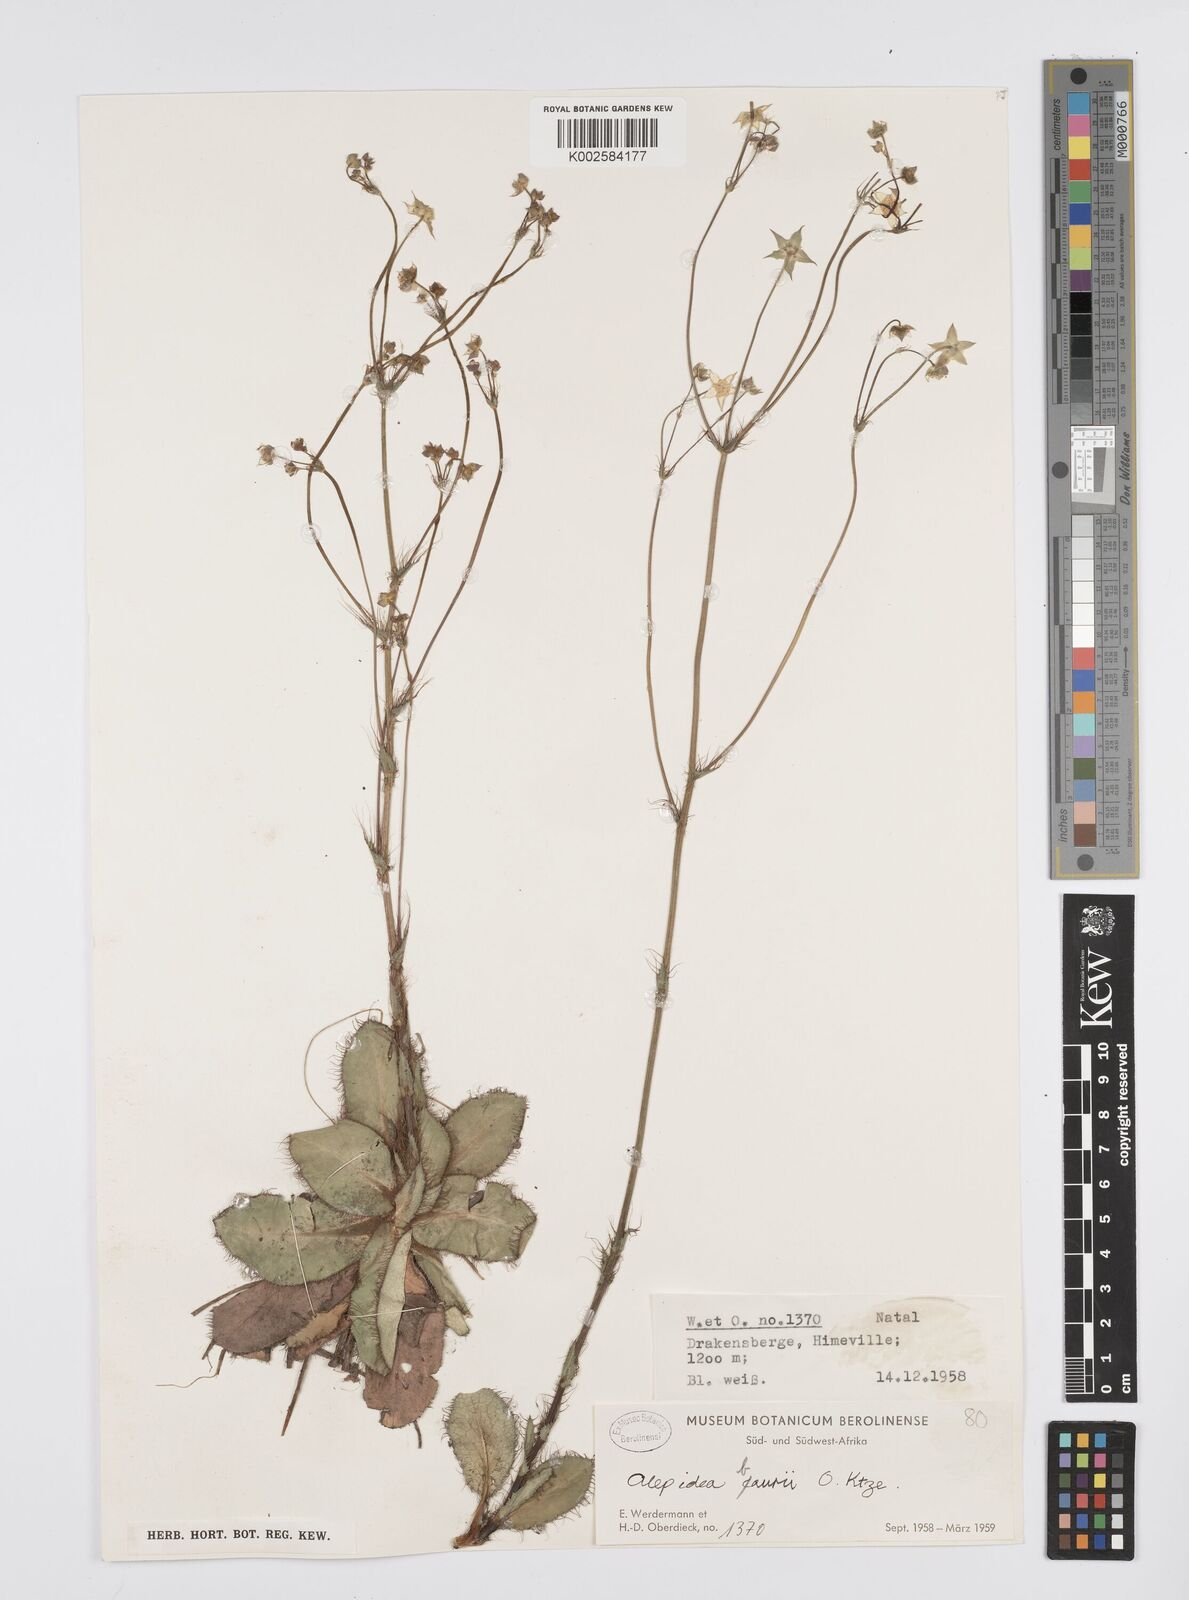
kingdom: Plantae
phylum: Tracheophyta
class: Magnoliopsida
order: Apiales
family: Apiaceae
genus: Alepidea
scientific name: Alepidea natalensis
